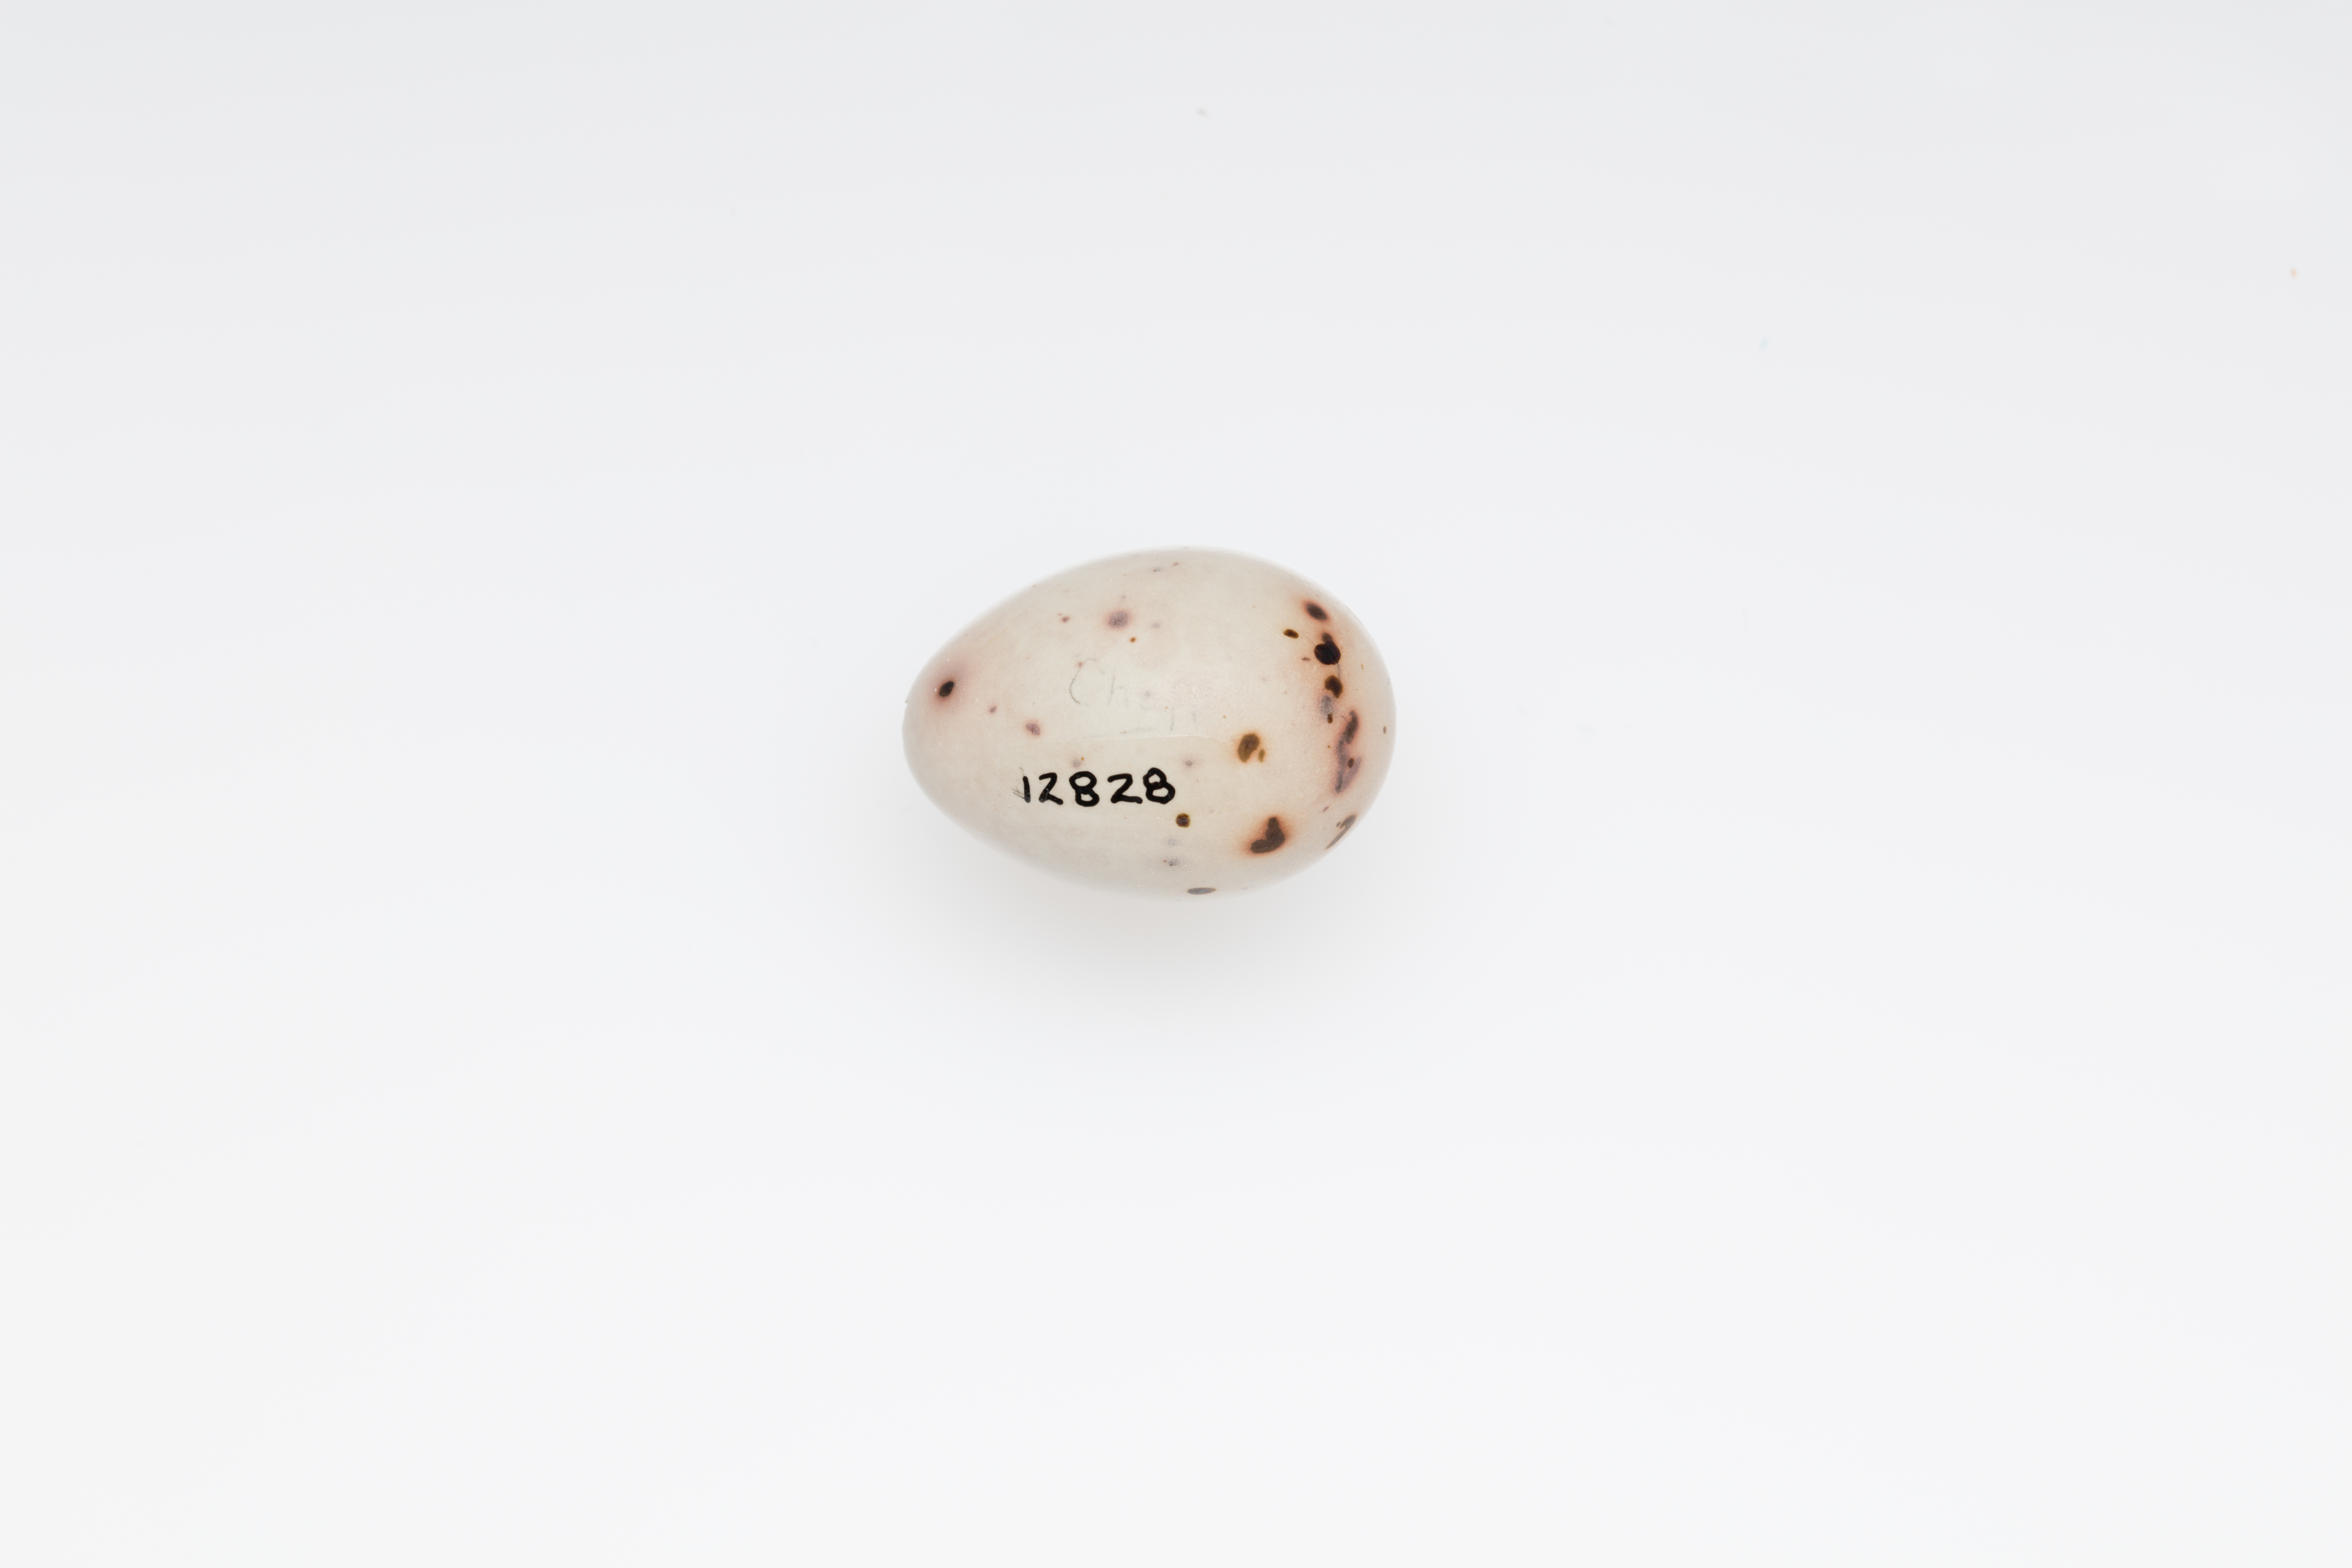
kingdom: Animalia
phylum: Chordata
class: Aves
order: Passeriformes
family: Fringillidae
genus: Fringilla
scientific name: Fringilla coelebs
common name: Common chaffinch
